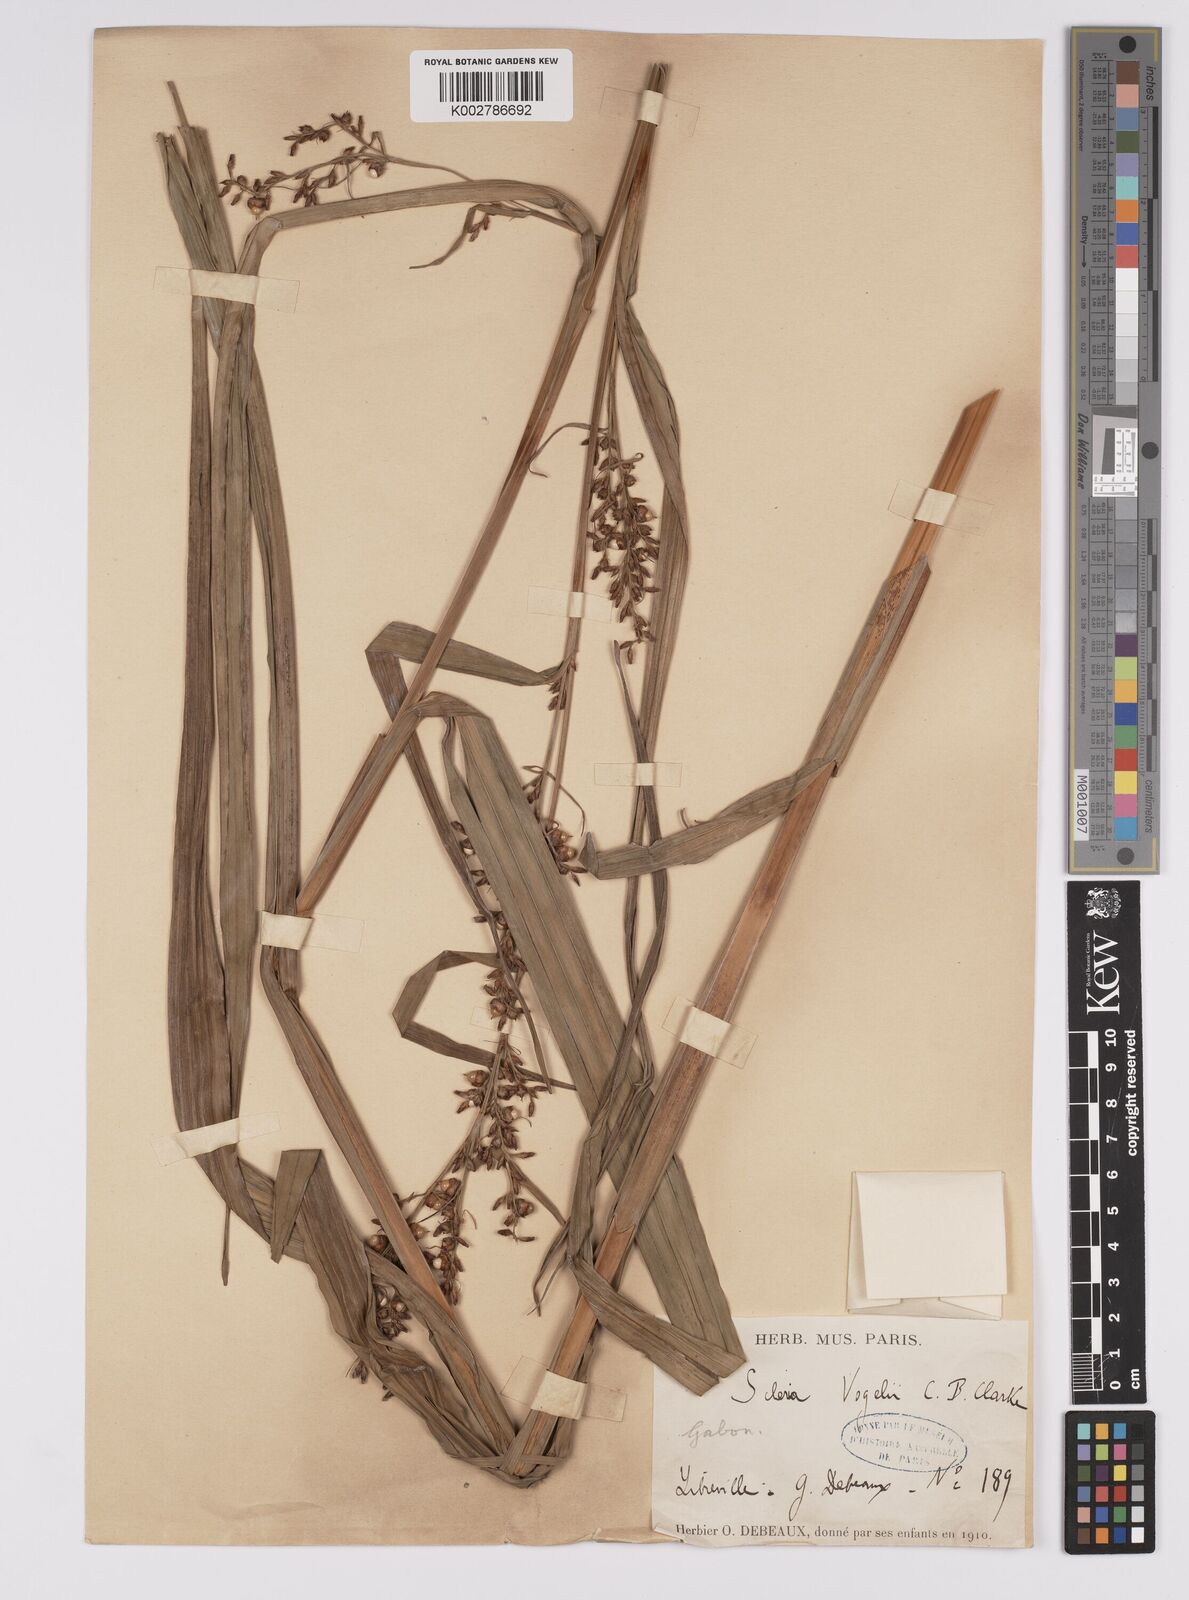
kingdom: Plantae
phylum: Tracheophyta
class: Liliopsida
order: Poales
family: Cyperaceae
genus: Scleria
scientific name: Scleria vogelii
